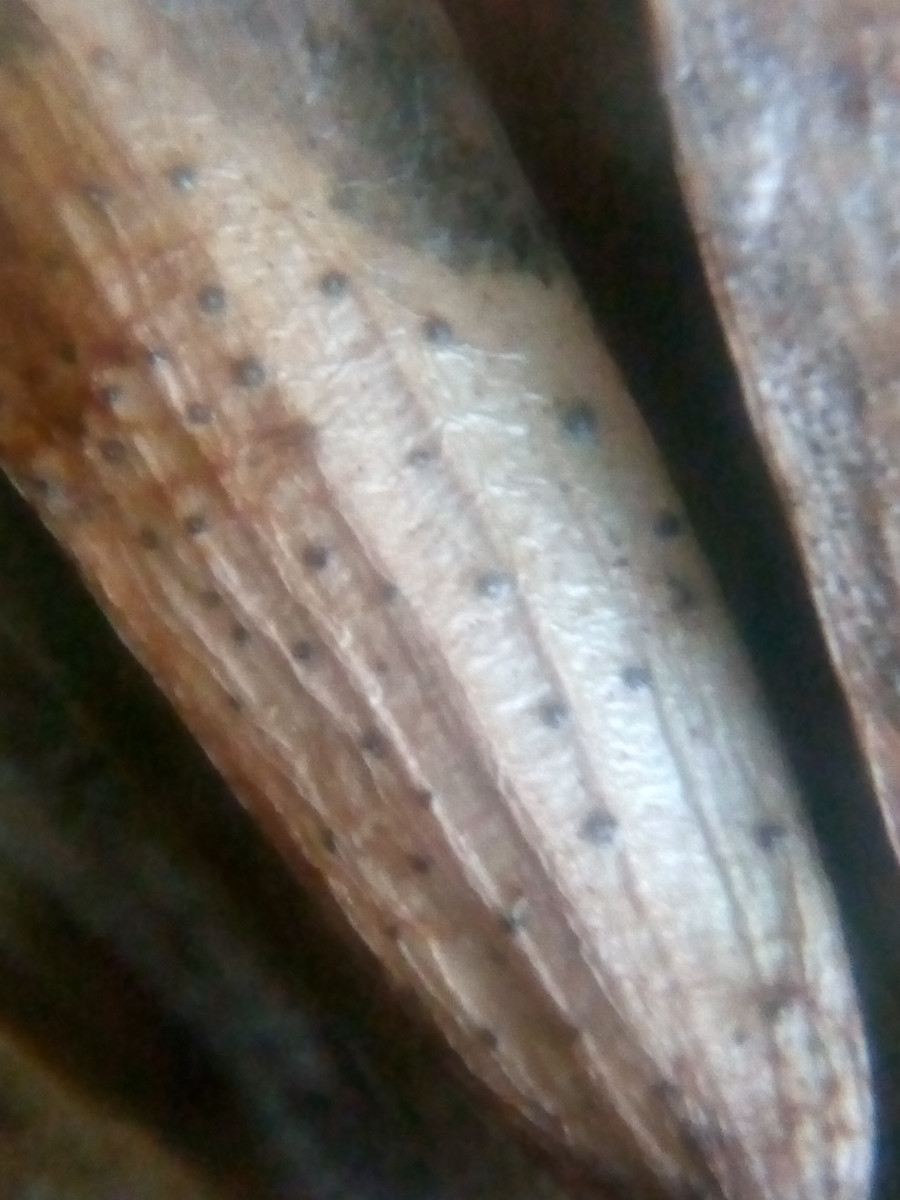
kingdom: Fungi
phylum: Ascomycota
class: Sordariomycetes
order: Diaporthales
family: Diaporthaceae
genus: Diaporthe
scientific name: Diaporthe samaricola
